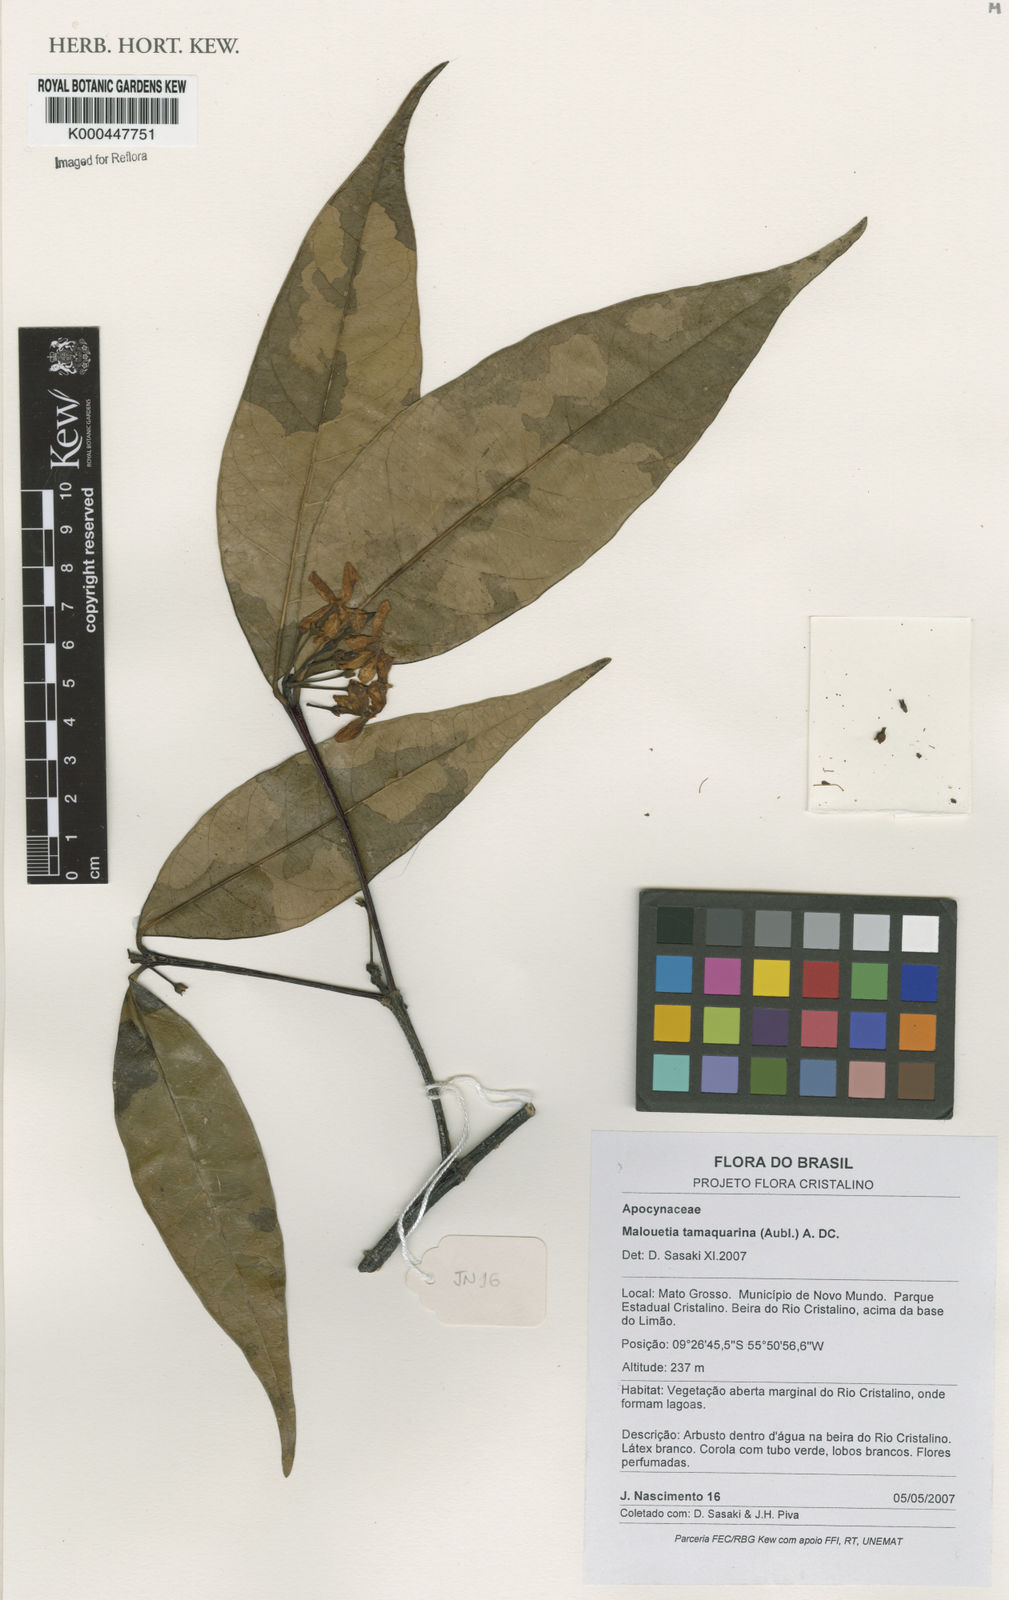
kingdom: Plantae
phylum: Tracheophyta
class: Magnoliopsida
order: Gentianales
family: Apocynaceae
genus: Malouetia
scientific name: Malouetia tamaquarina
